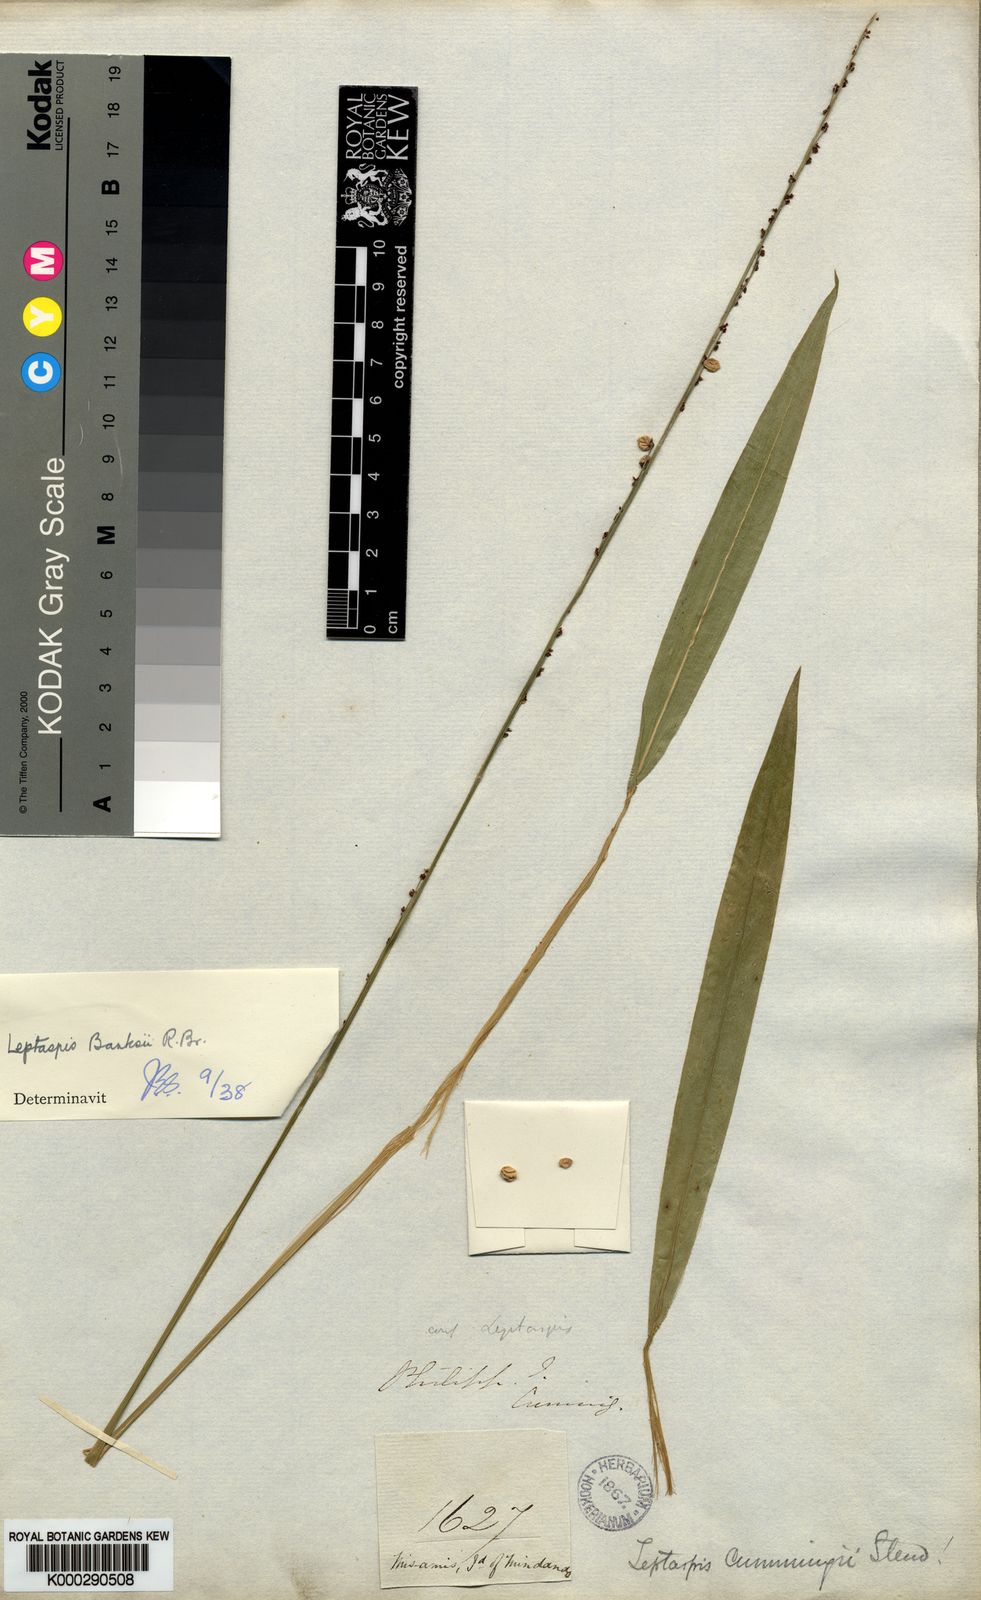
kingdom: Plantae
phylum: Tracheophyta
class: Liliopsida
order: Poales
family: Poaceae
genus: Leptaspis
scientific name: Leptaspis banksii
